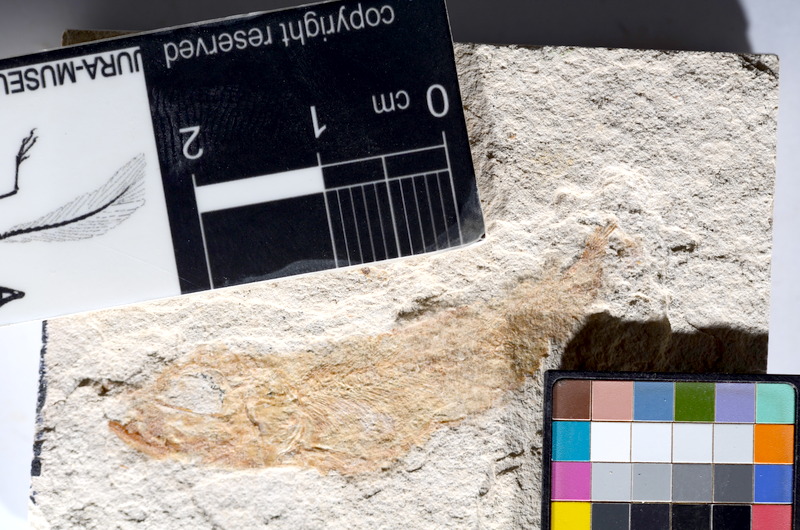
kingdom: Animalia
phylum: Chordata
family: Ascalaboidae
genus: Tharsis
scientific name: Tharsis dubius
